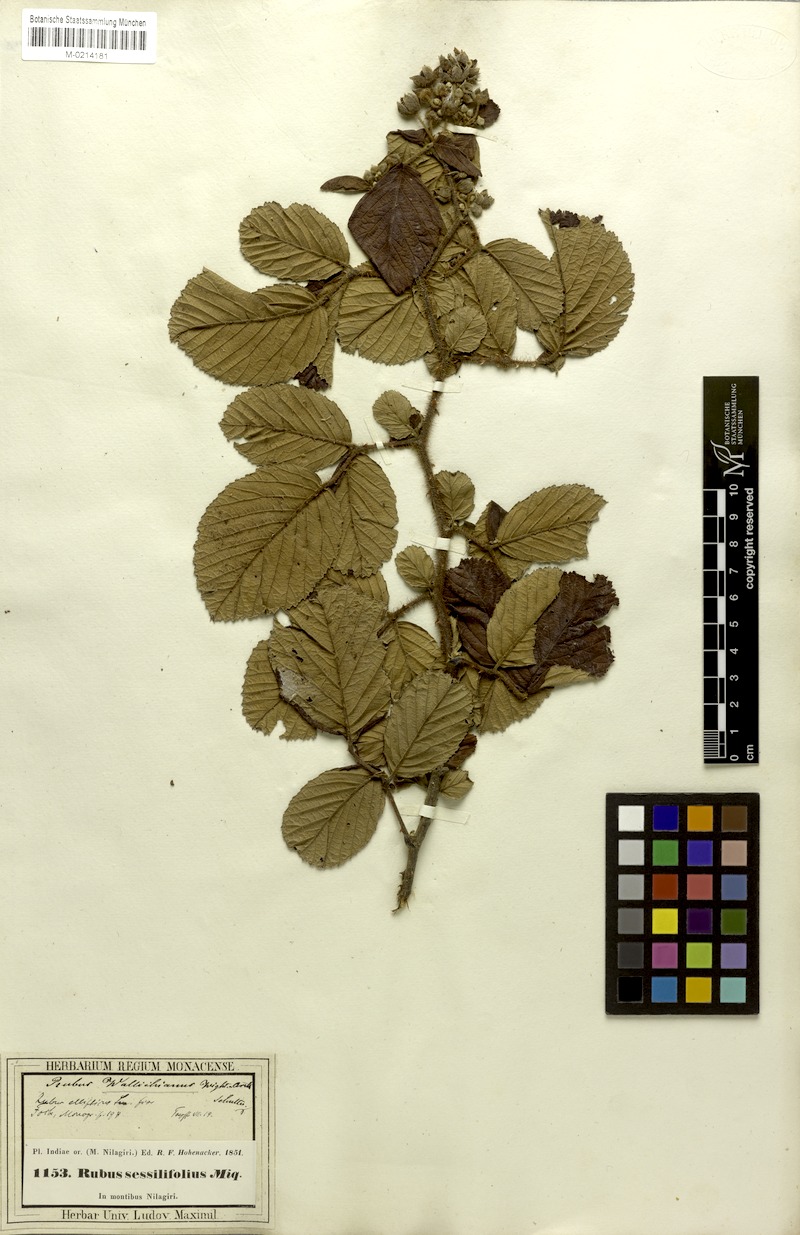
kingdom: Plantae
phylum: Tracheophyta
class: Magnoliopsida
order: Rosales
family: Rosaceae
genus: Rubus
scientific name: Rubus ellipticus
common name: Cheeseberry
